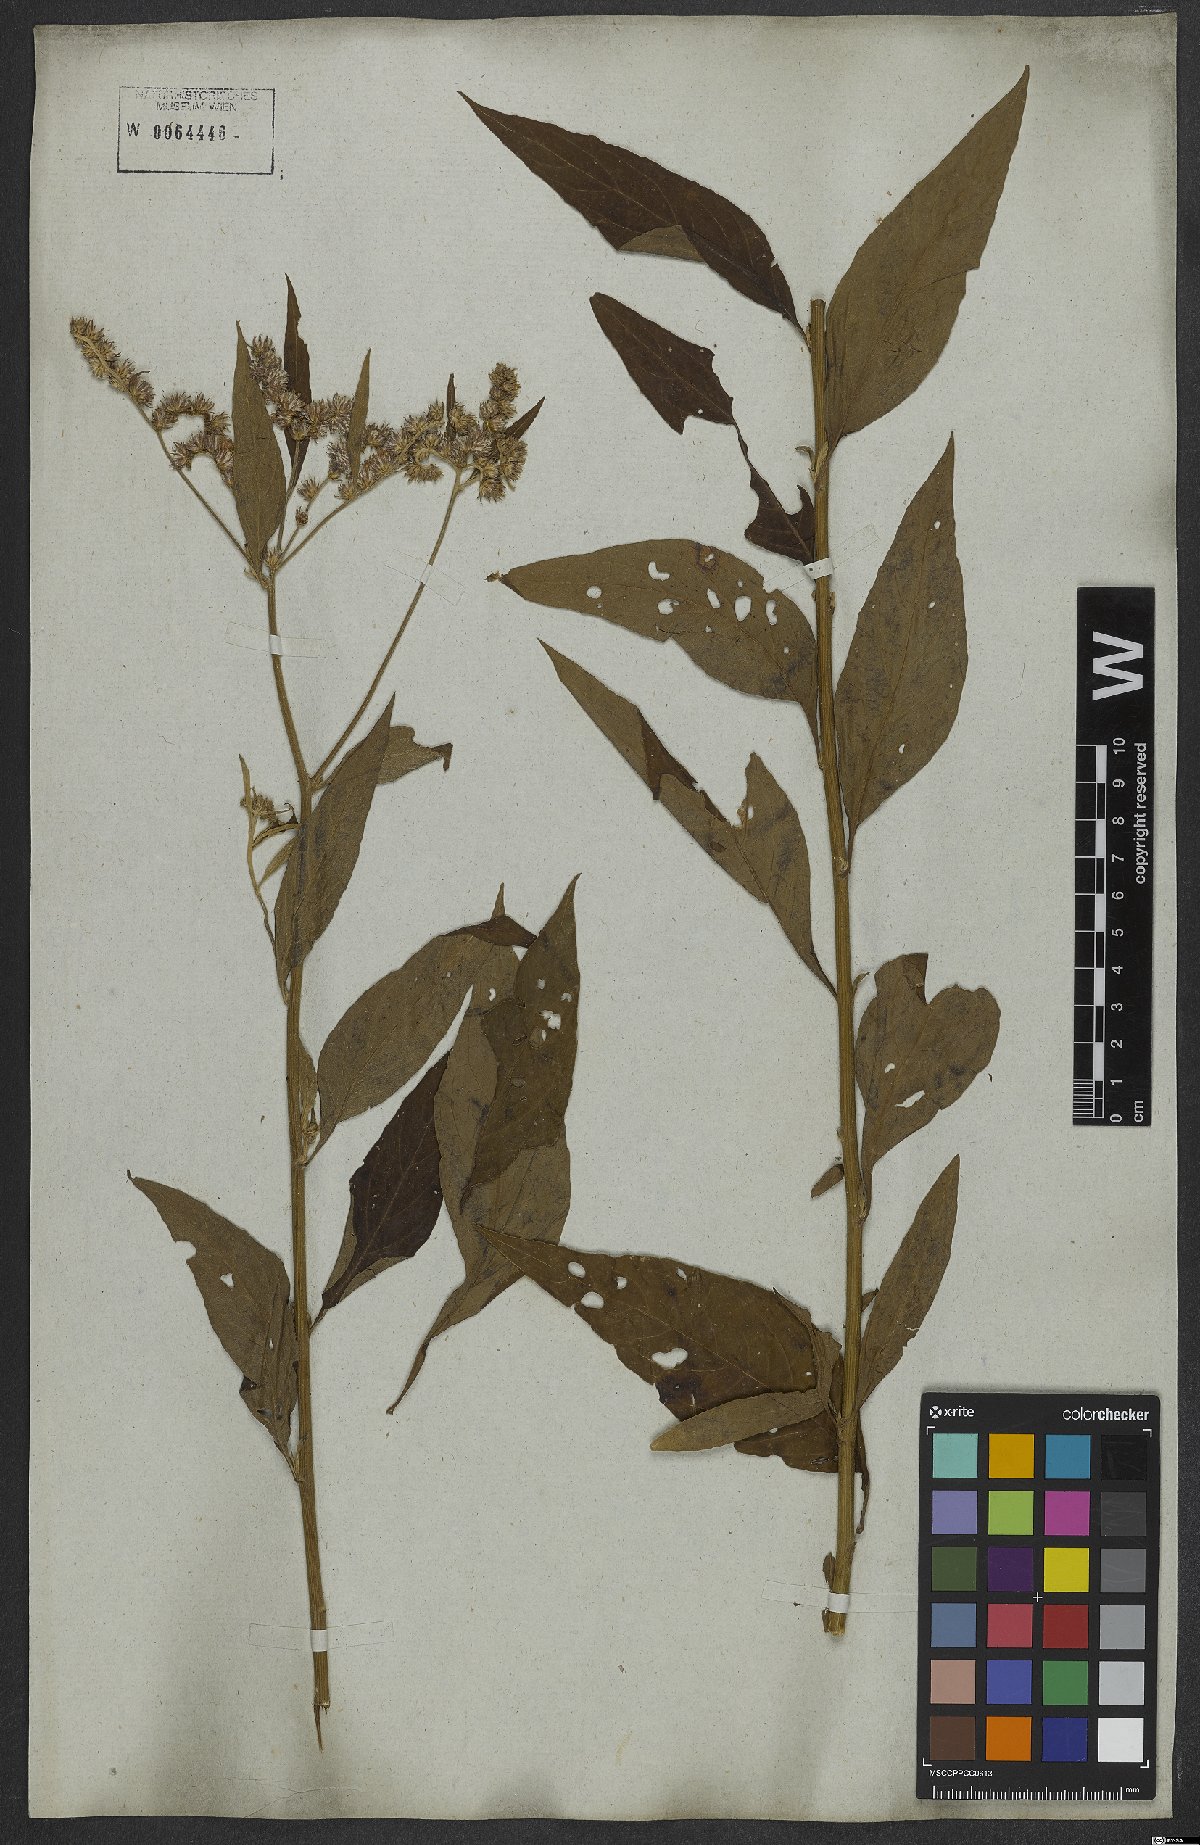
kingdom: Plantae
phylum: Tracheophyta
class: Magnoliopsida
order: Asterales
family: Asteraceae
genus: Vernonanthura
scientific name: Vernonanthura ignobilis
